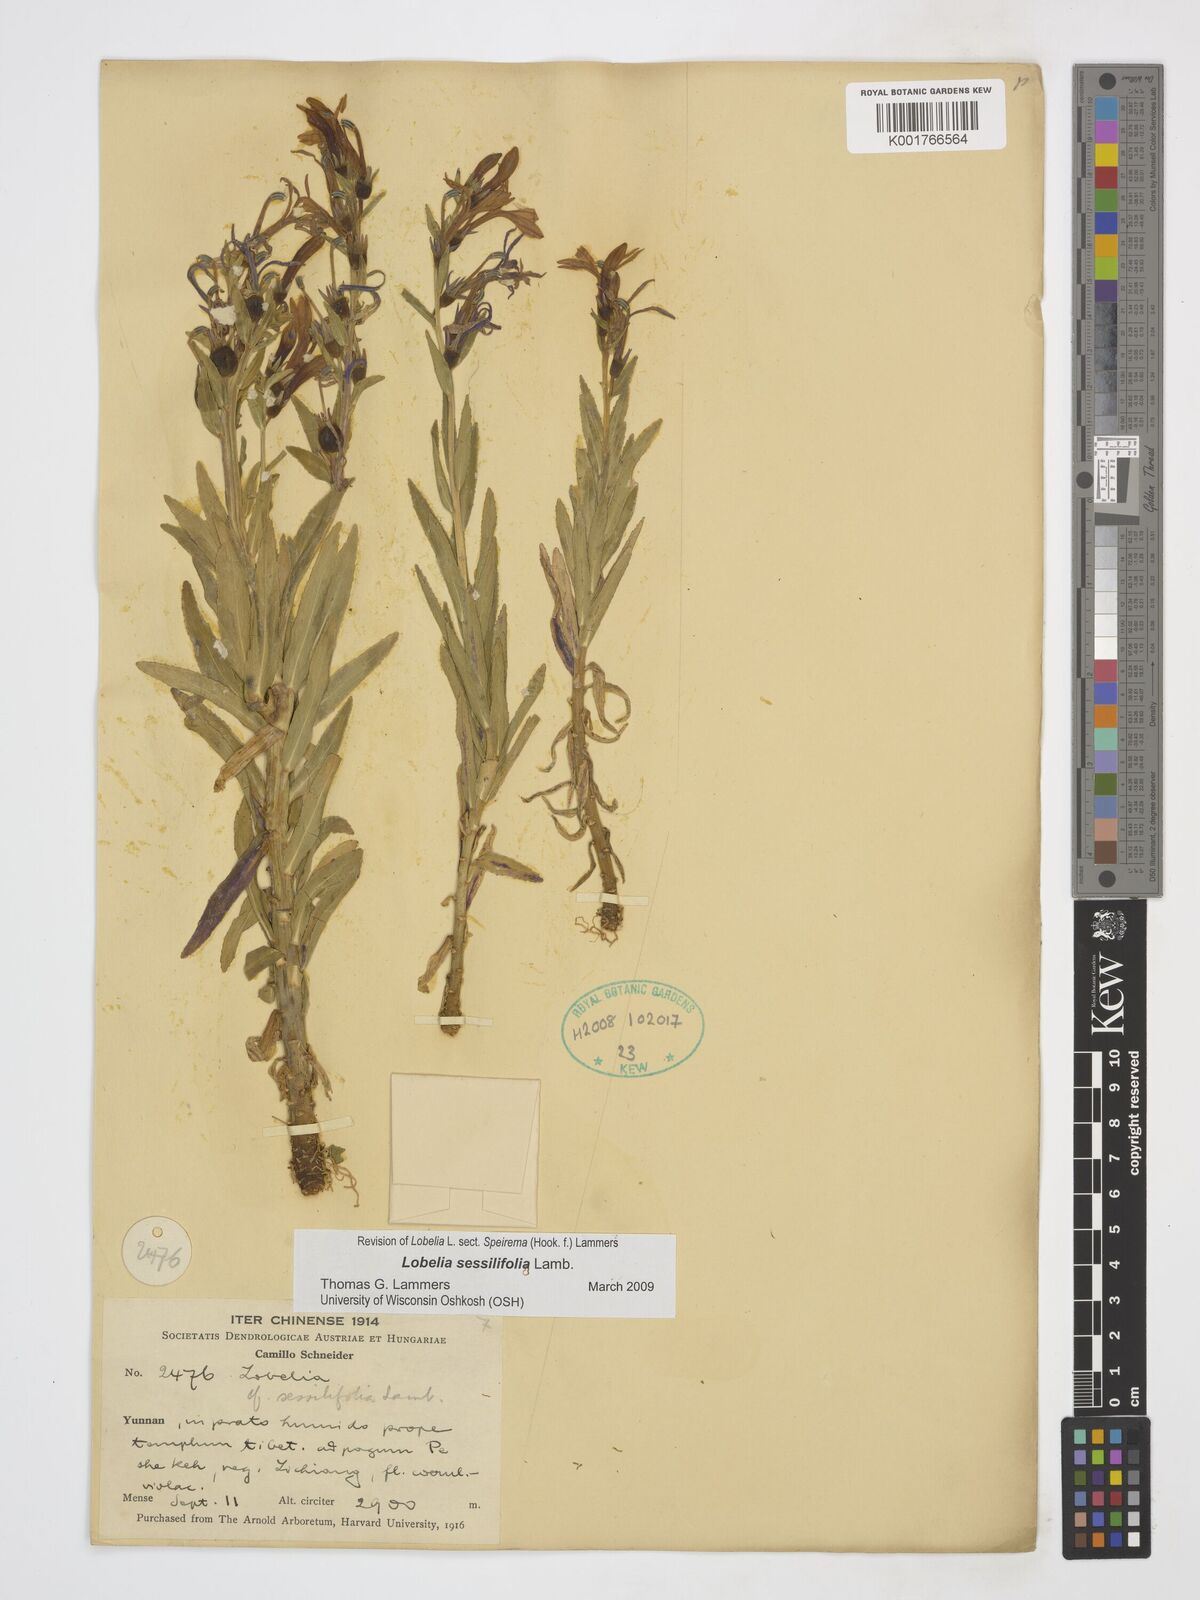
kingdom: Plantae
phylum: Tracheophyta
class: Magnoliopsida
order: Asterales
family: Campanulaceae
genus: Lobelia
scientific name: Lobelia sessilifolia
